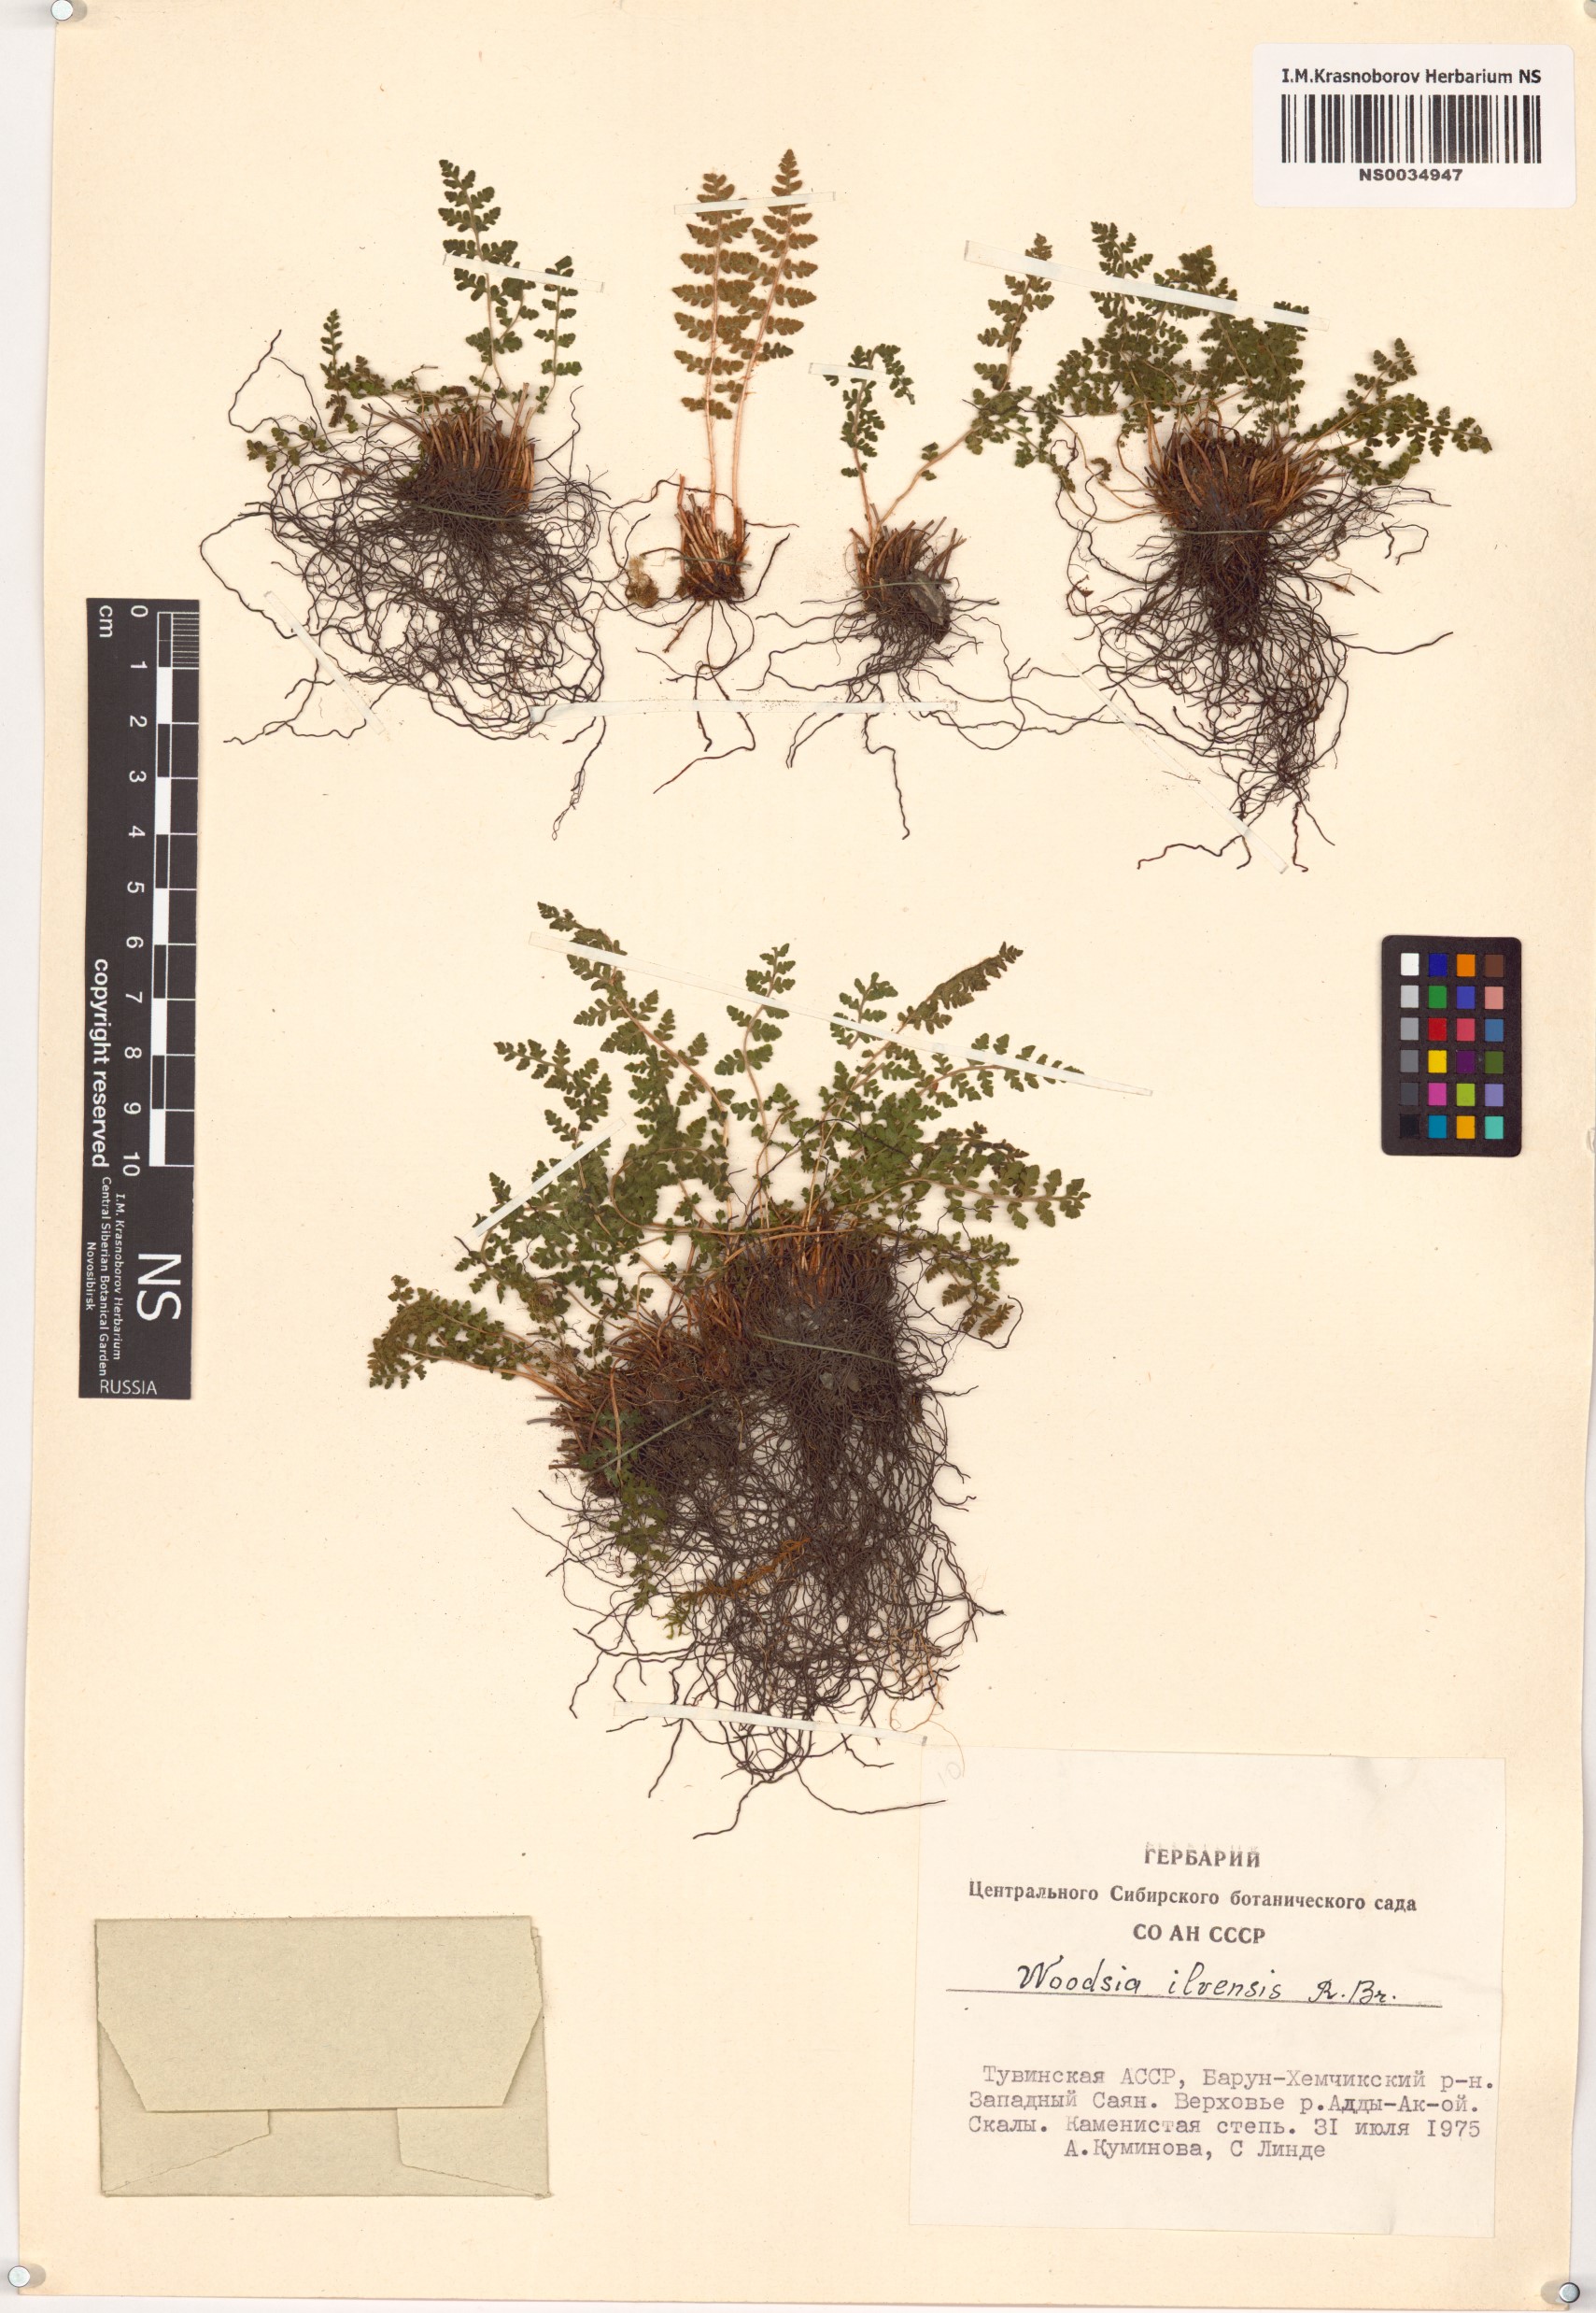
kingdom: Plantae
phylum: Tracheophyta
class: Polypodiopsida
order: Polypodiales
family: Woodsiaceae
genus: Woodsia
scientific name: Woodsia ilvensis
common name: Fragrant woodsia
